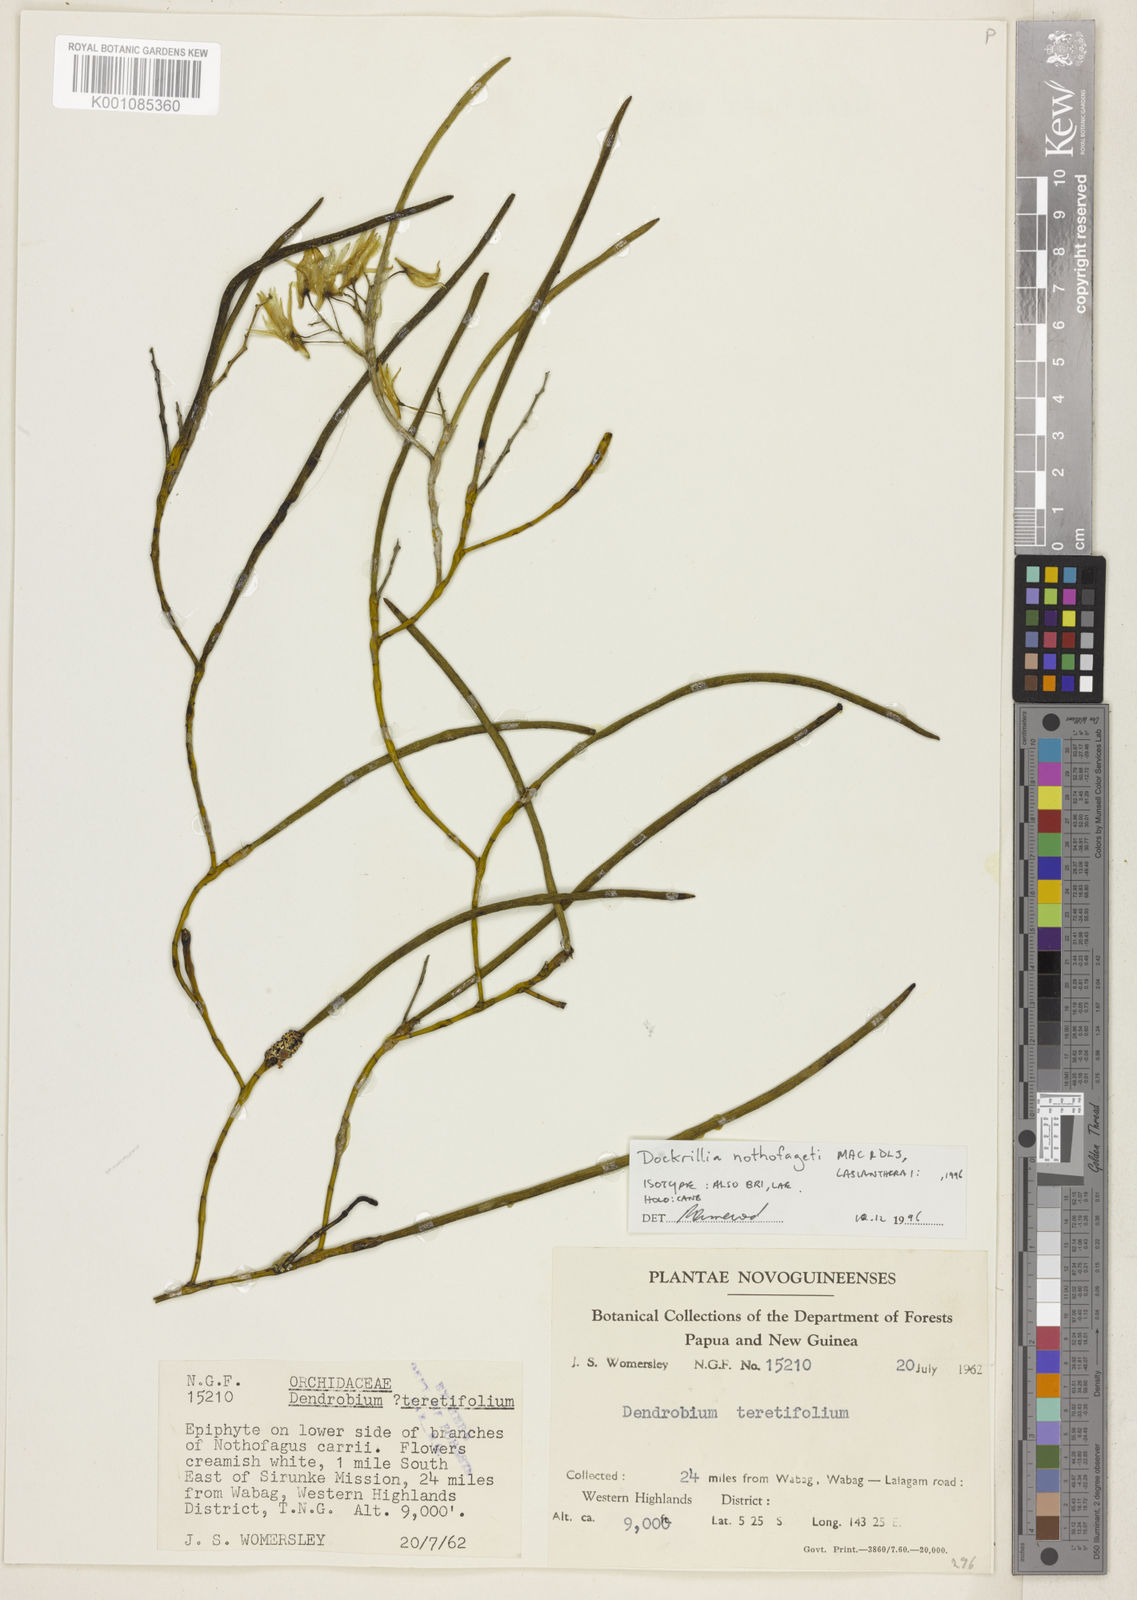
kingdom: Plantae
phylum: Tracheophyta
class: Liliopsida
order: Asparagales
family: Orchidaceae
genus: Dendrobium
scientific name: Dendrobium nothofageti
